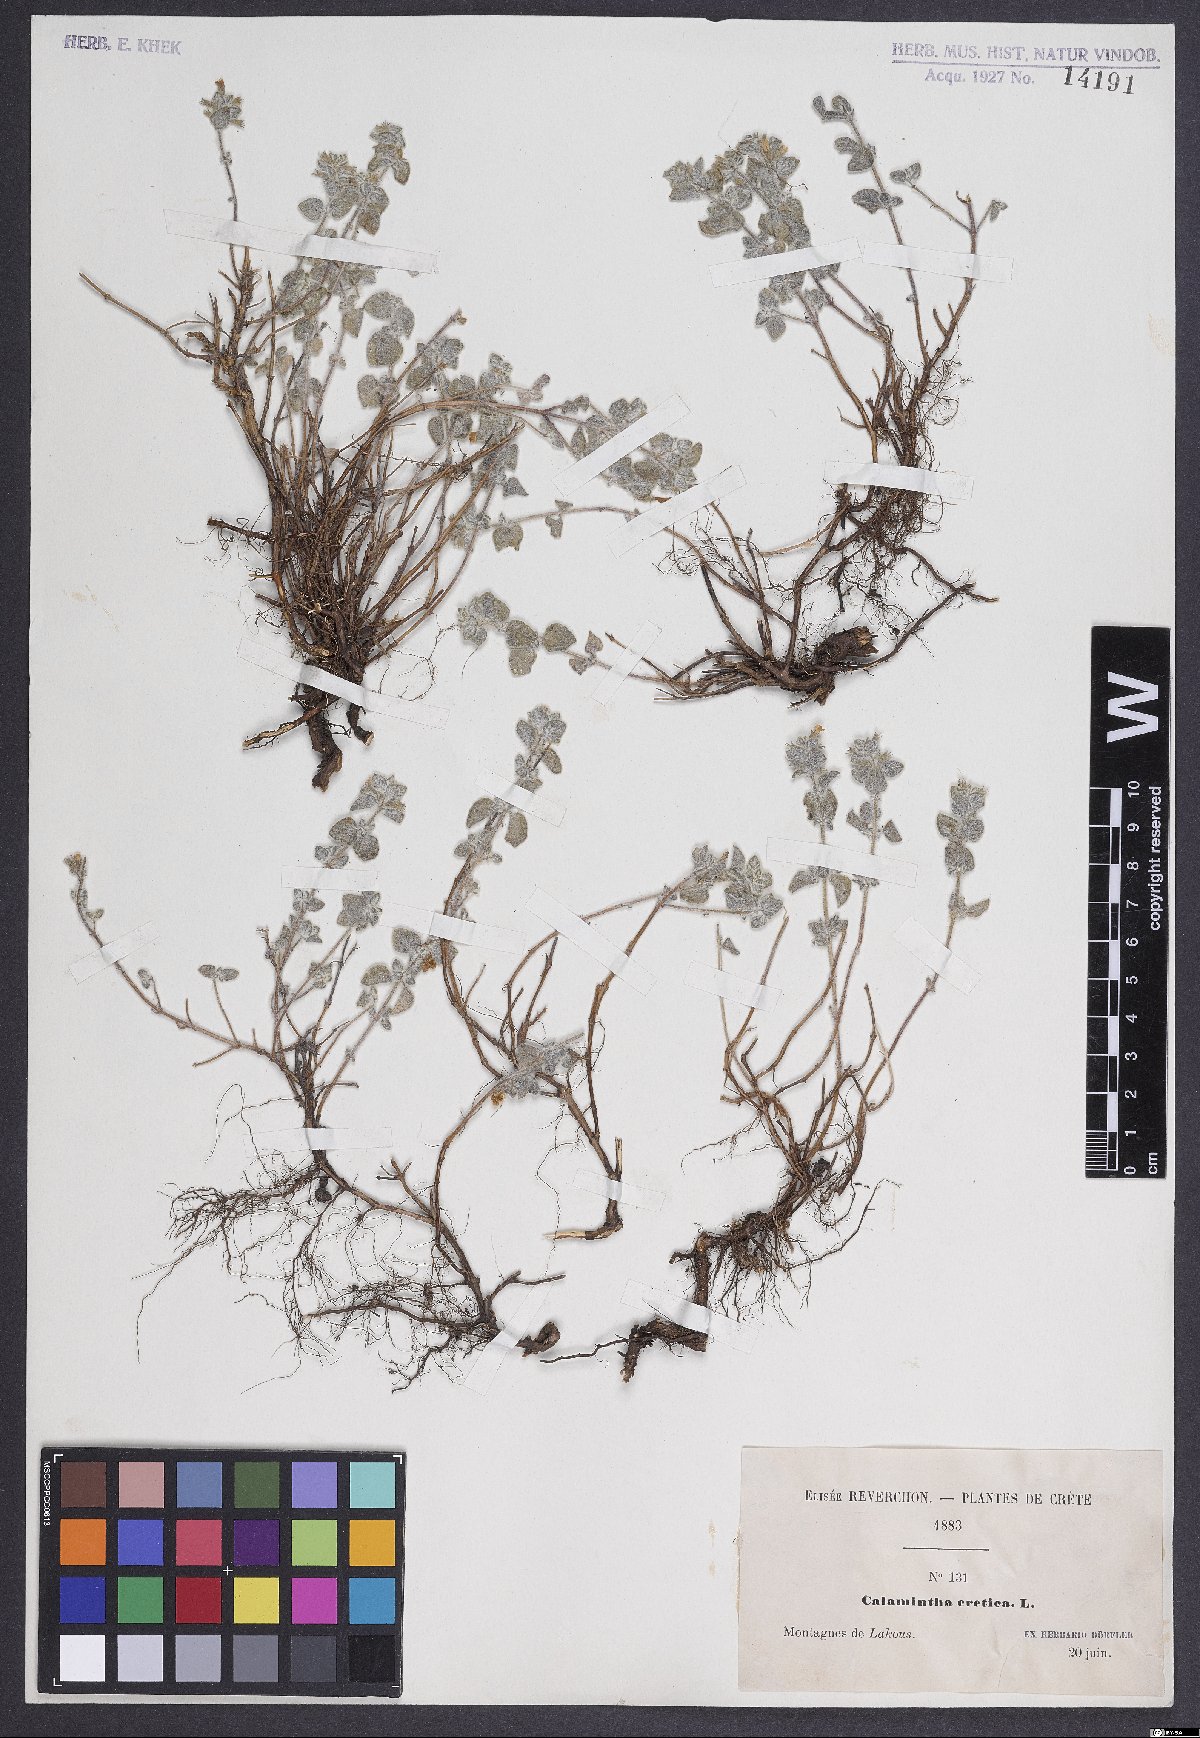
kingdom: Plantae
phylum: Tracheophyta
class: Magnoliopsida
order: Lamiales
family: Lamiaceae
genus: Clinopodium
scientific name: Clinopodium creticum
